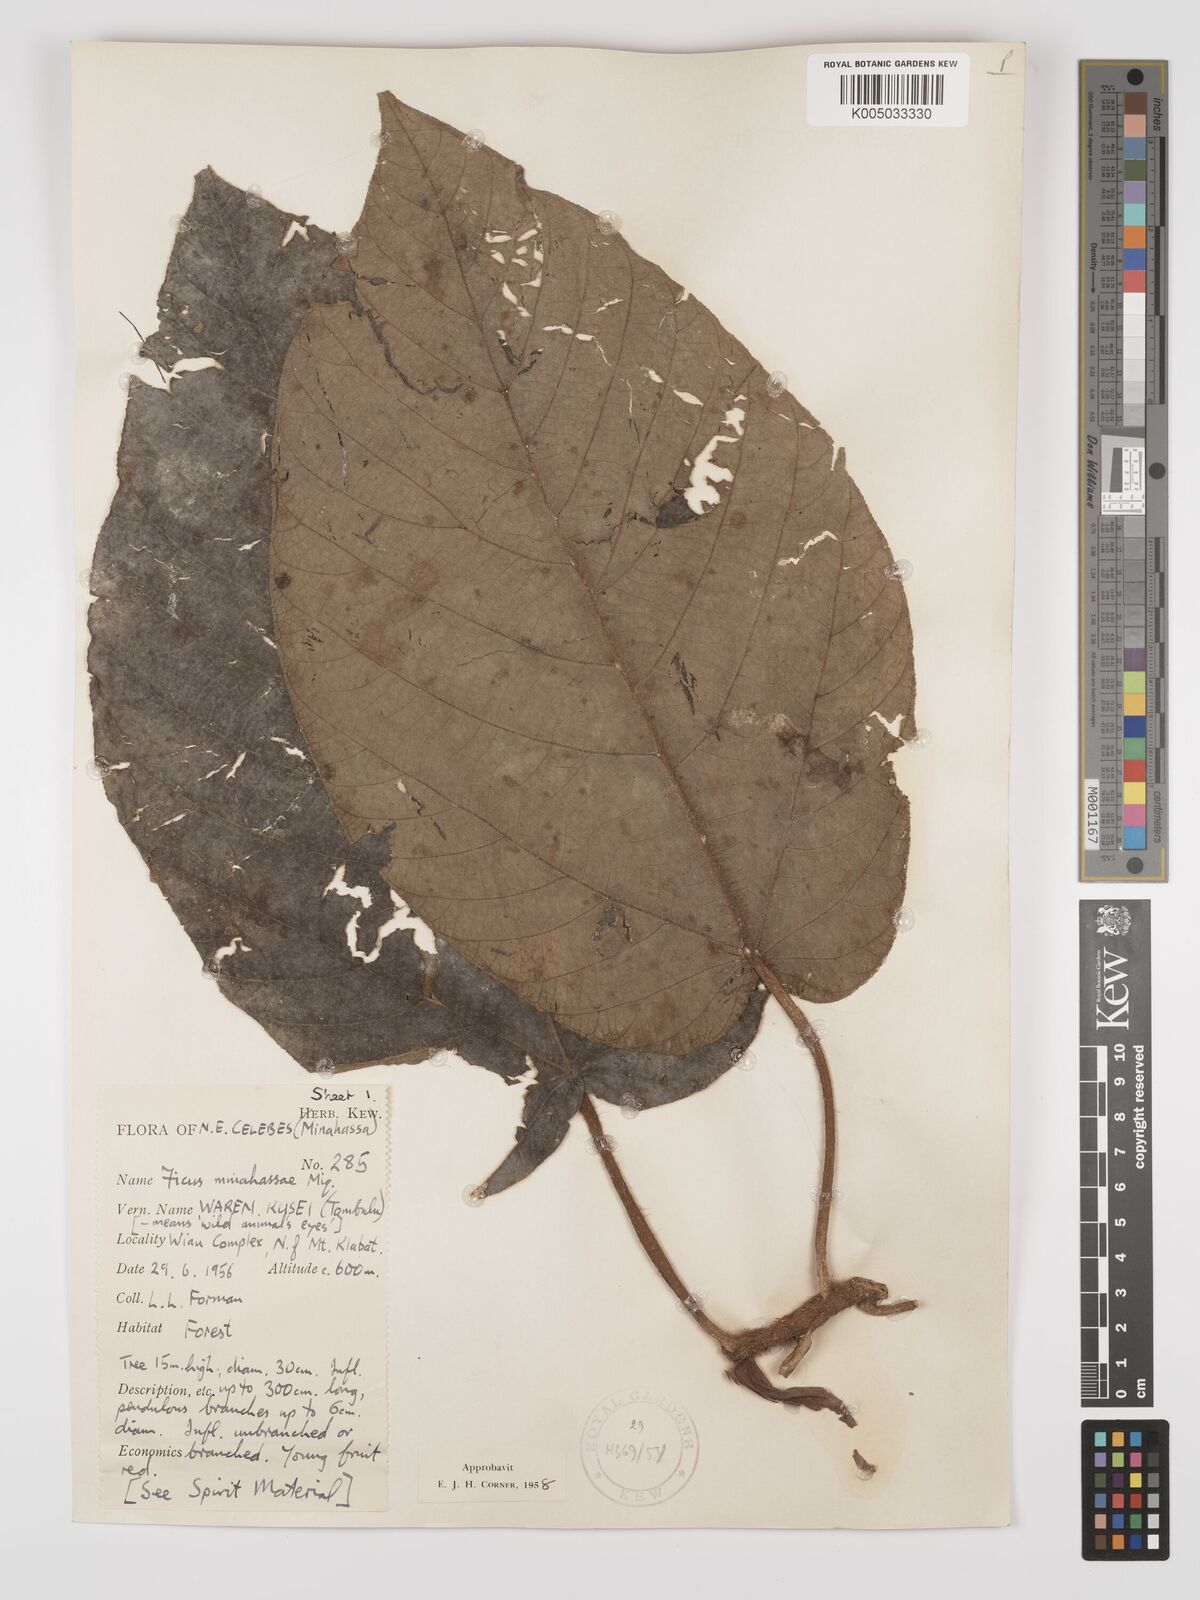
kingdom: Plantae
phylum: Tracheophyta
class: Magnoliopsida
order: Rosales
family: Moraceae
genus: Ficus
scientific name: Ficus minahassae
